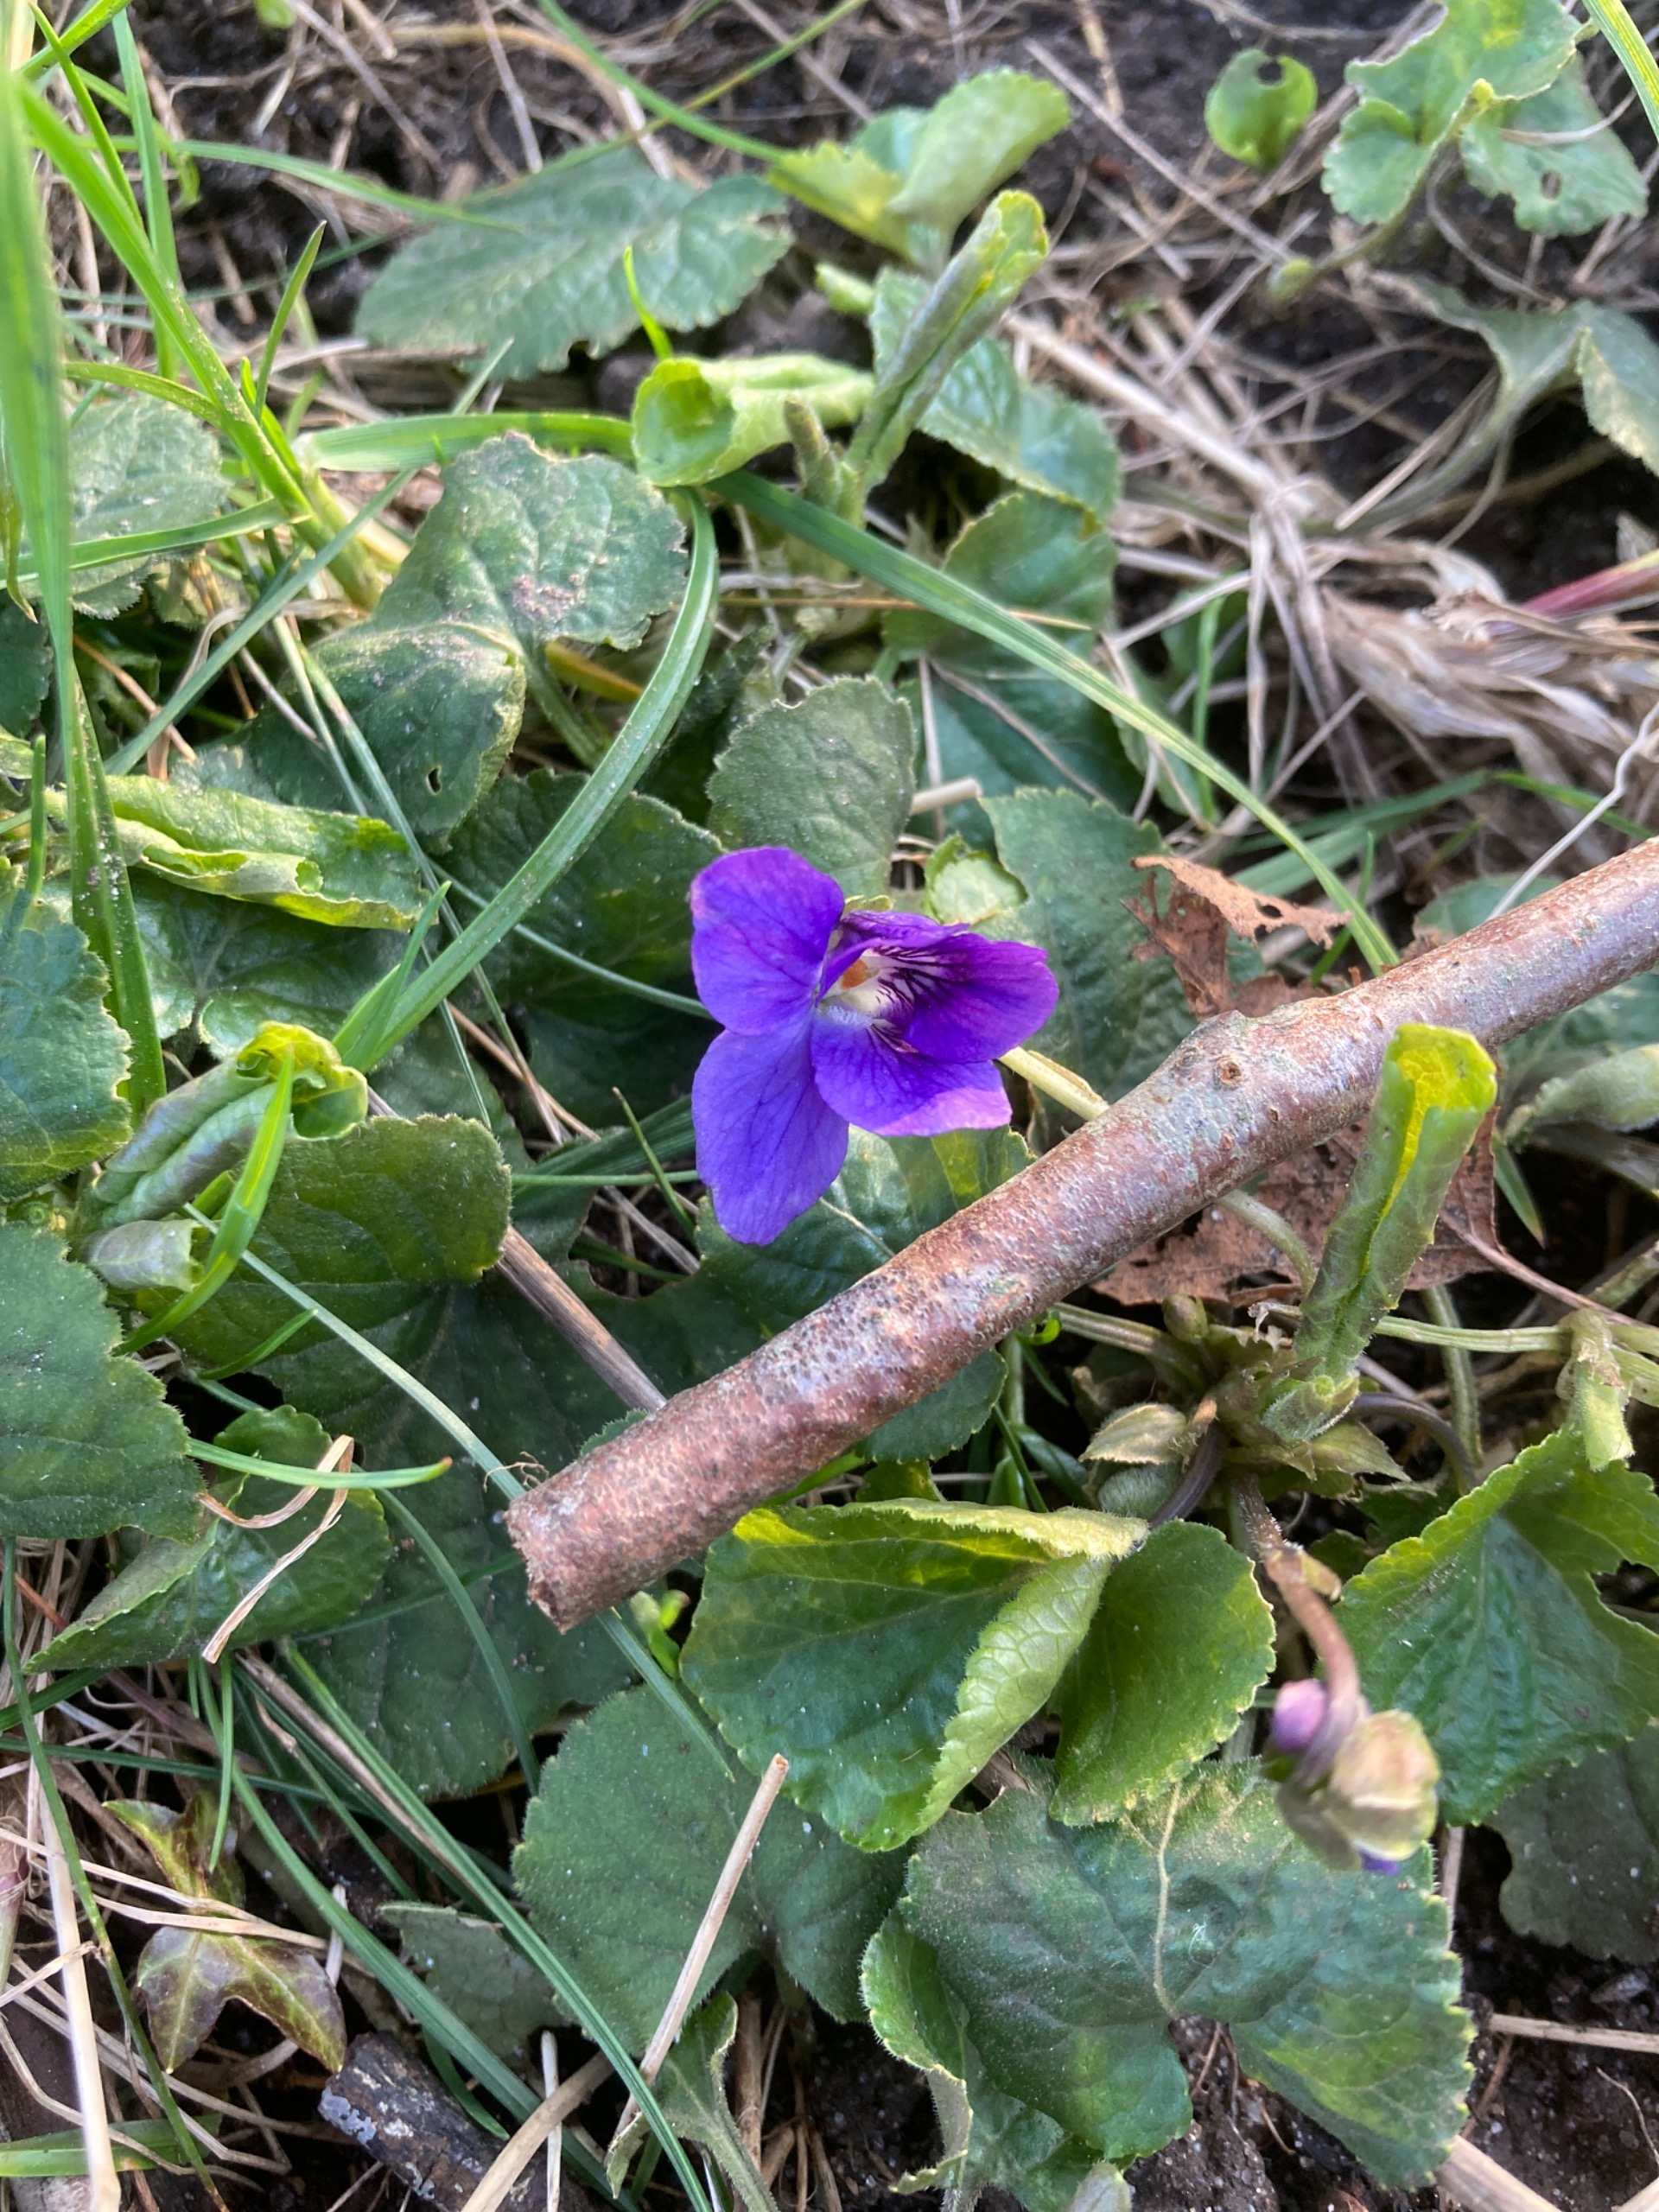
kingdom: Plantae
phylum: Tracheophyta
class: Magnoliopsida
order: Malpighiales
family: Violaceae
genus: Viola
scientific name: Viola odorata
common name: Marts-viol
